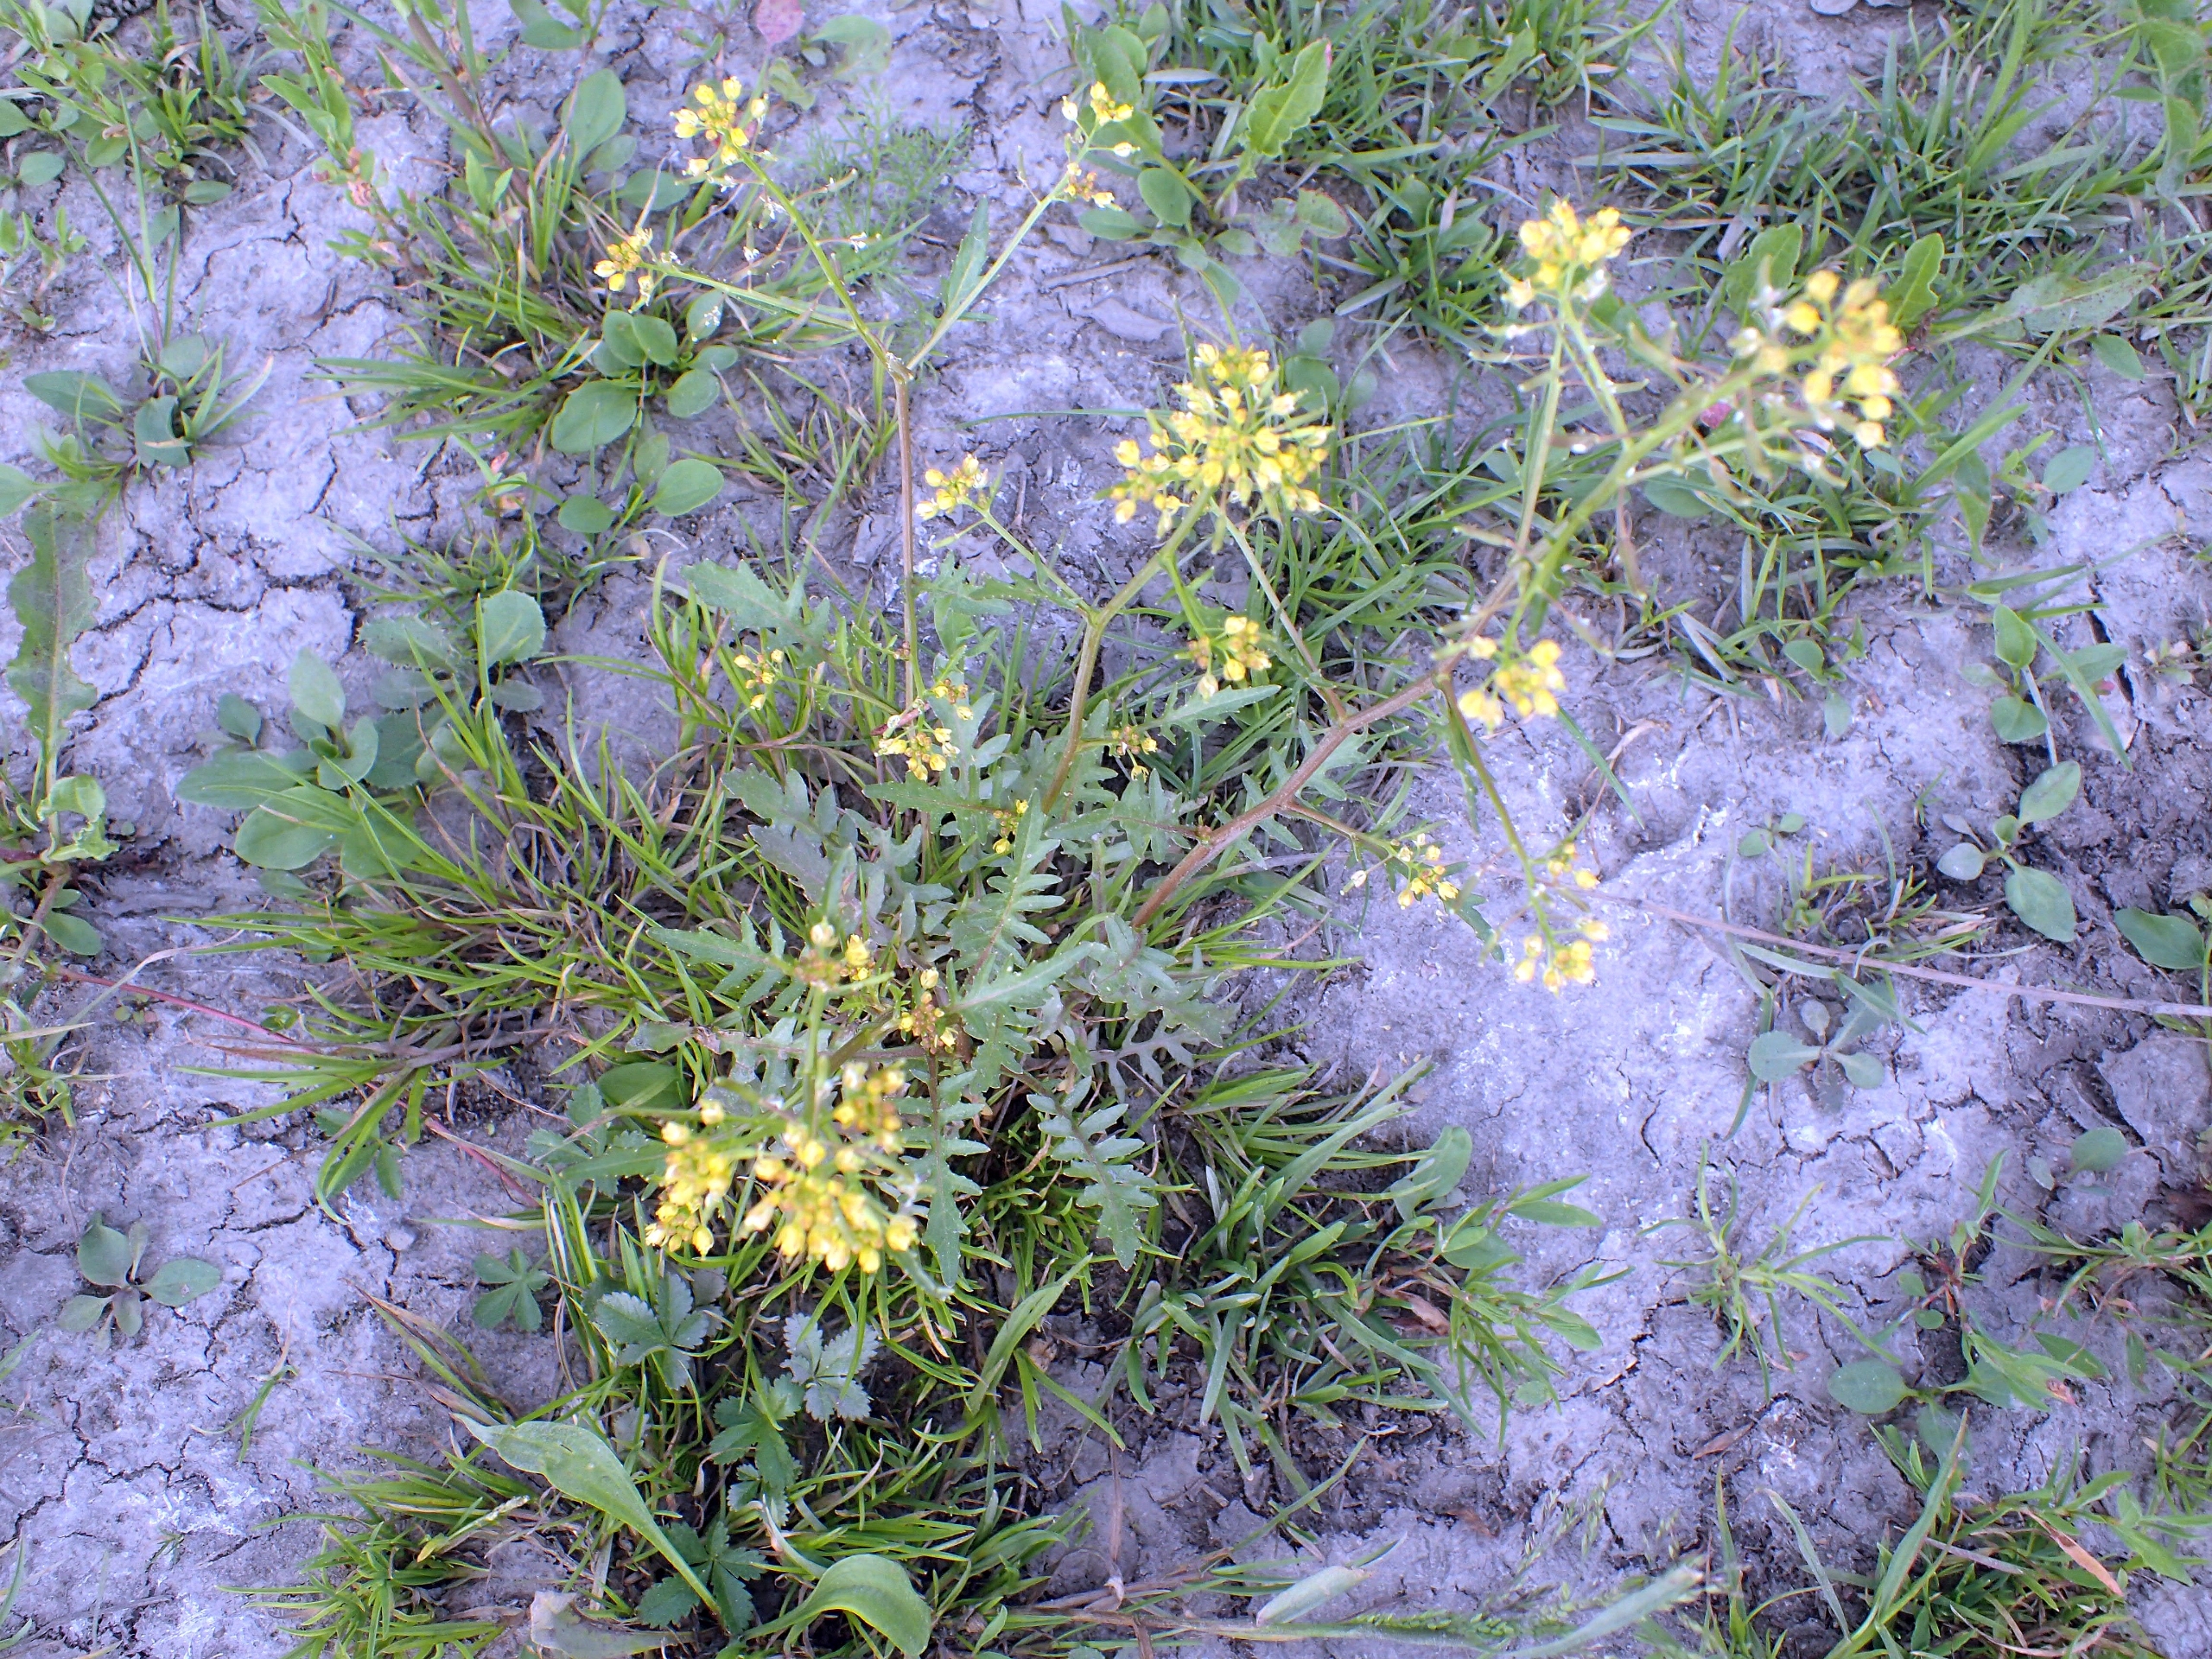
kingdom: Plantae
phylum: Tracheophyta
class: Magnoliopsida
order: Brassicales
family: Brassicaceae
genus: Rorippa
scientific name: Rorippa palustris
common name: Kær-guldkarse
